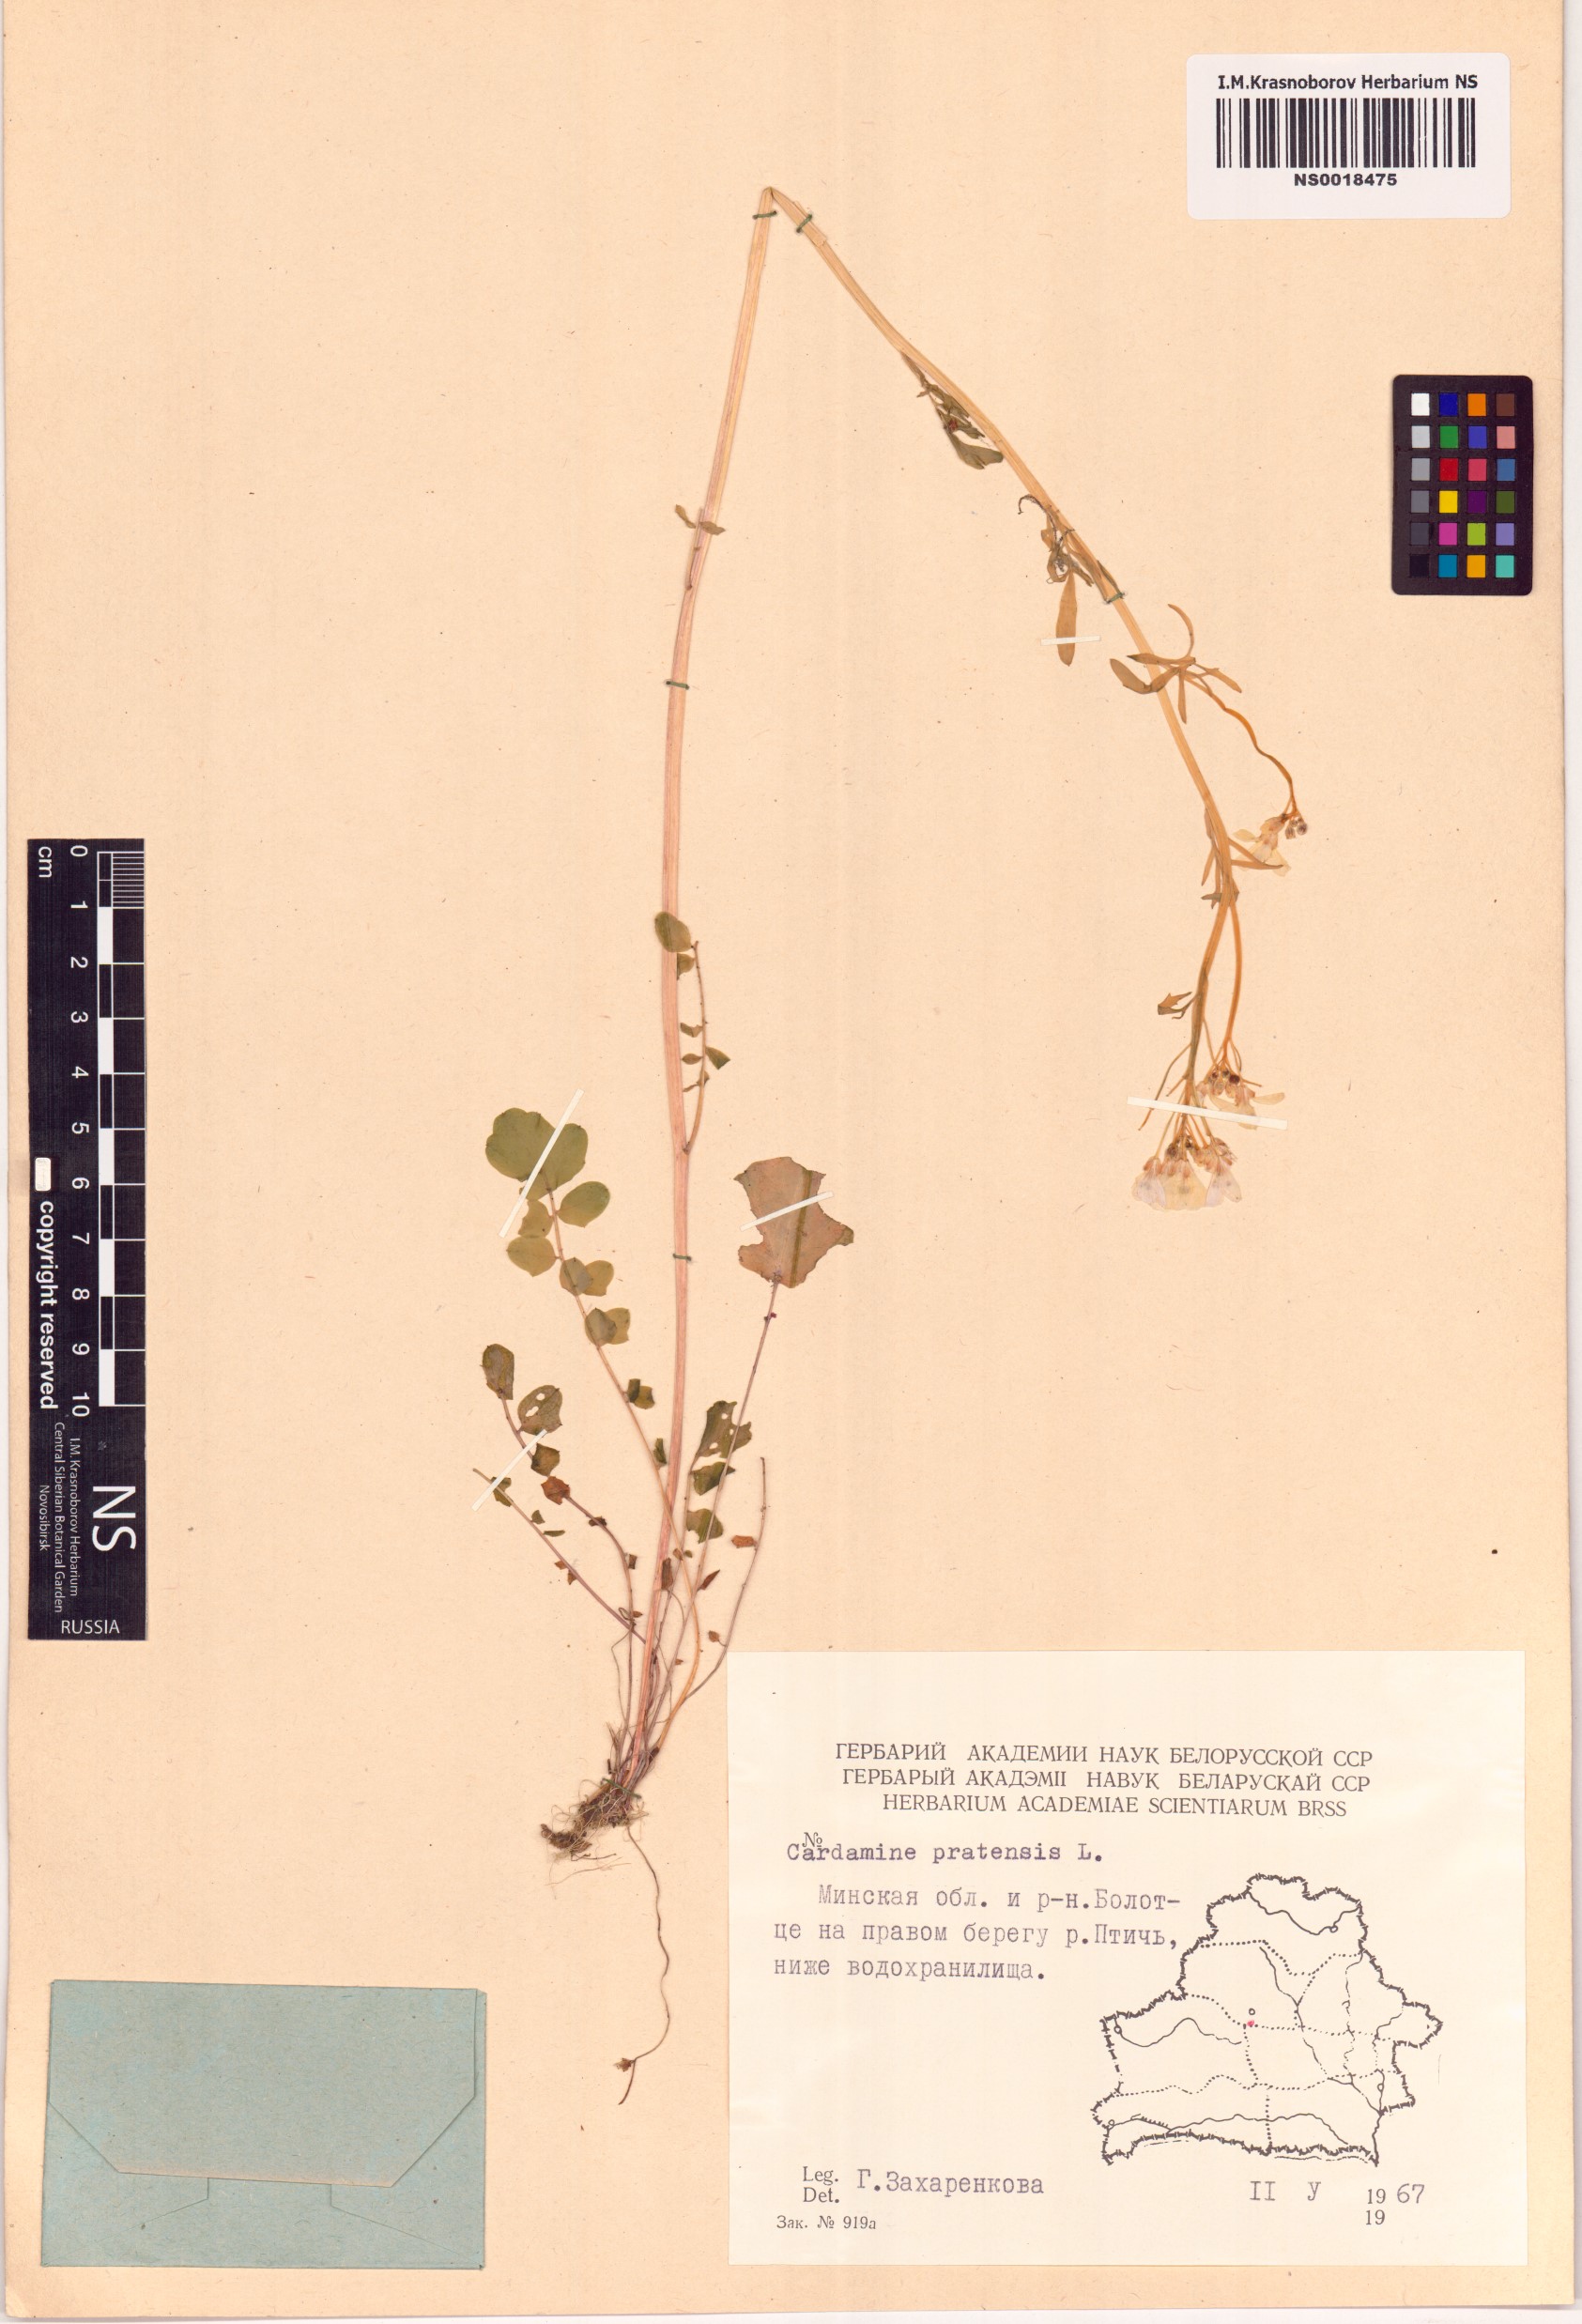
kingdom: Plantae
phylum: Tracheophyta
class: Magnoliopsida
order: Brassicales
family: Brassicaceae
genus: Cardamine
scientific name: Cardamine pratensis
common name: Cuckoo flower
